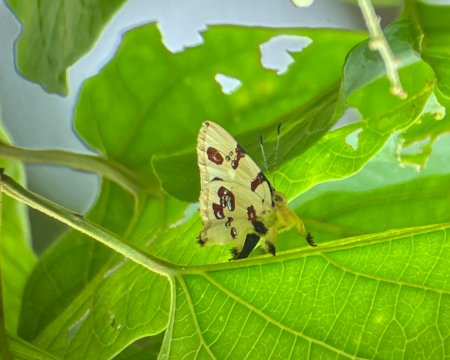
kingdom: Animalia
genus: Anteros
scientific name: Anteros formosus
